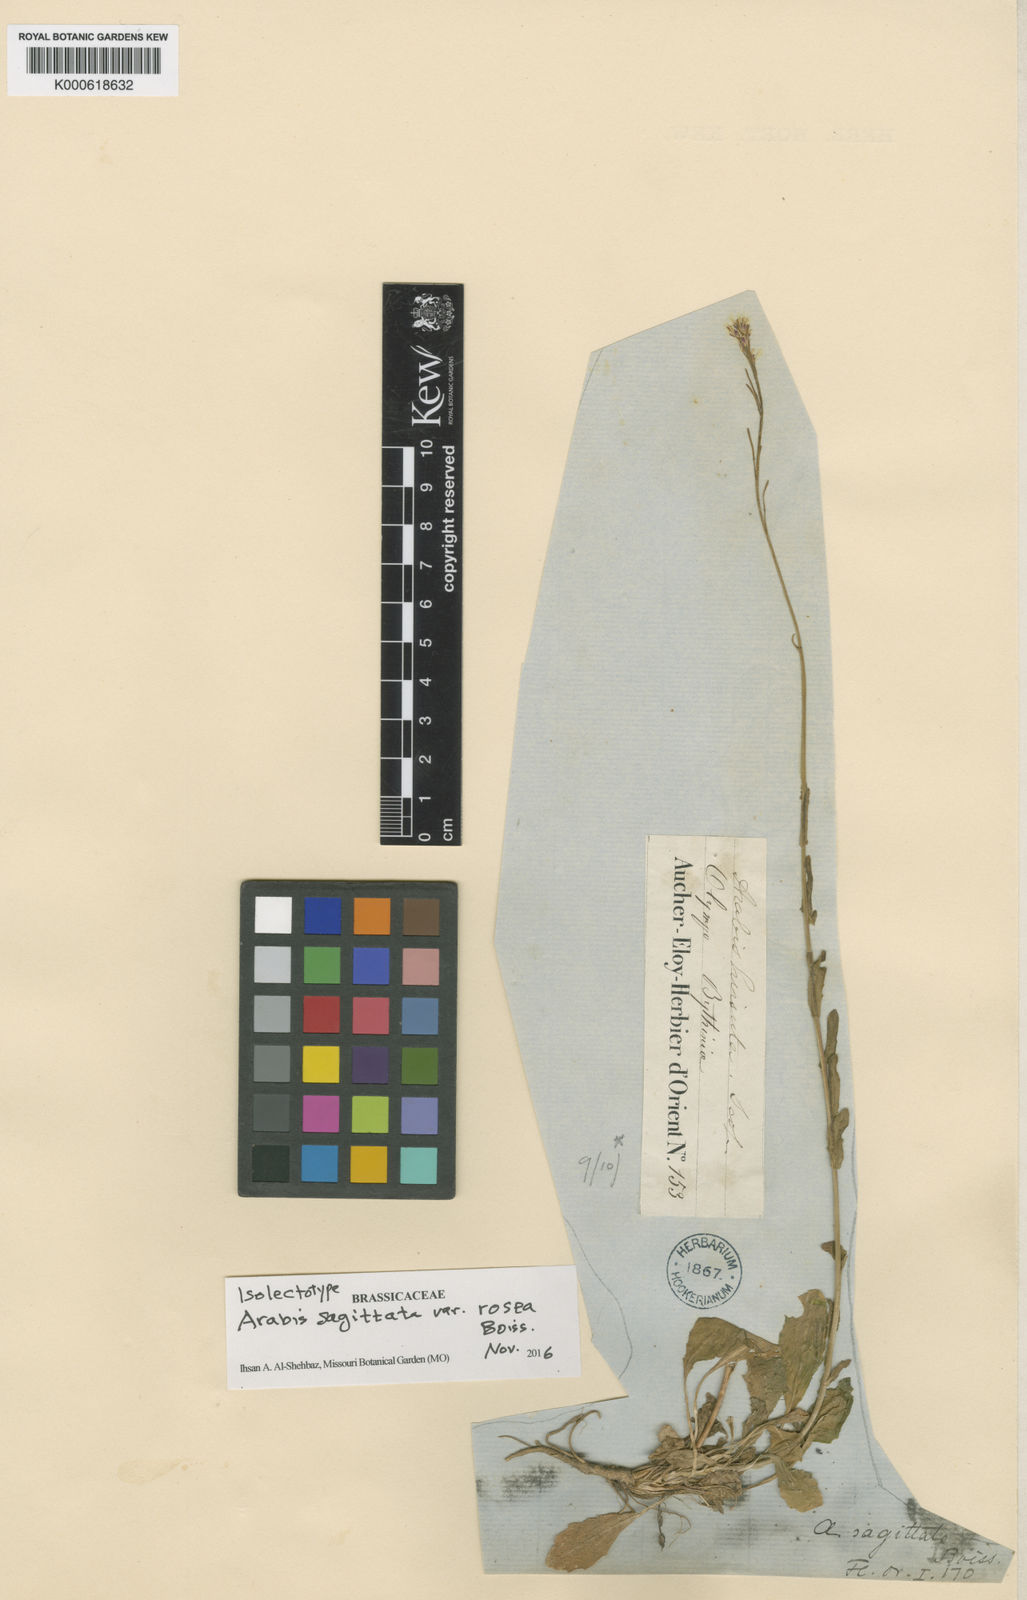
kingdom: Plantae
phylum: Tracheophyta
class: Magnoliopsida
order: Brassicales
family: Brassicaceae
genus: Arabis
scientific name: Arabis
